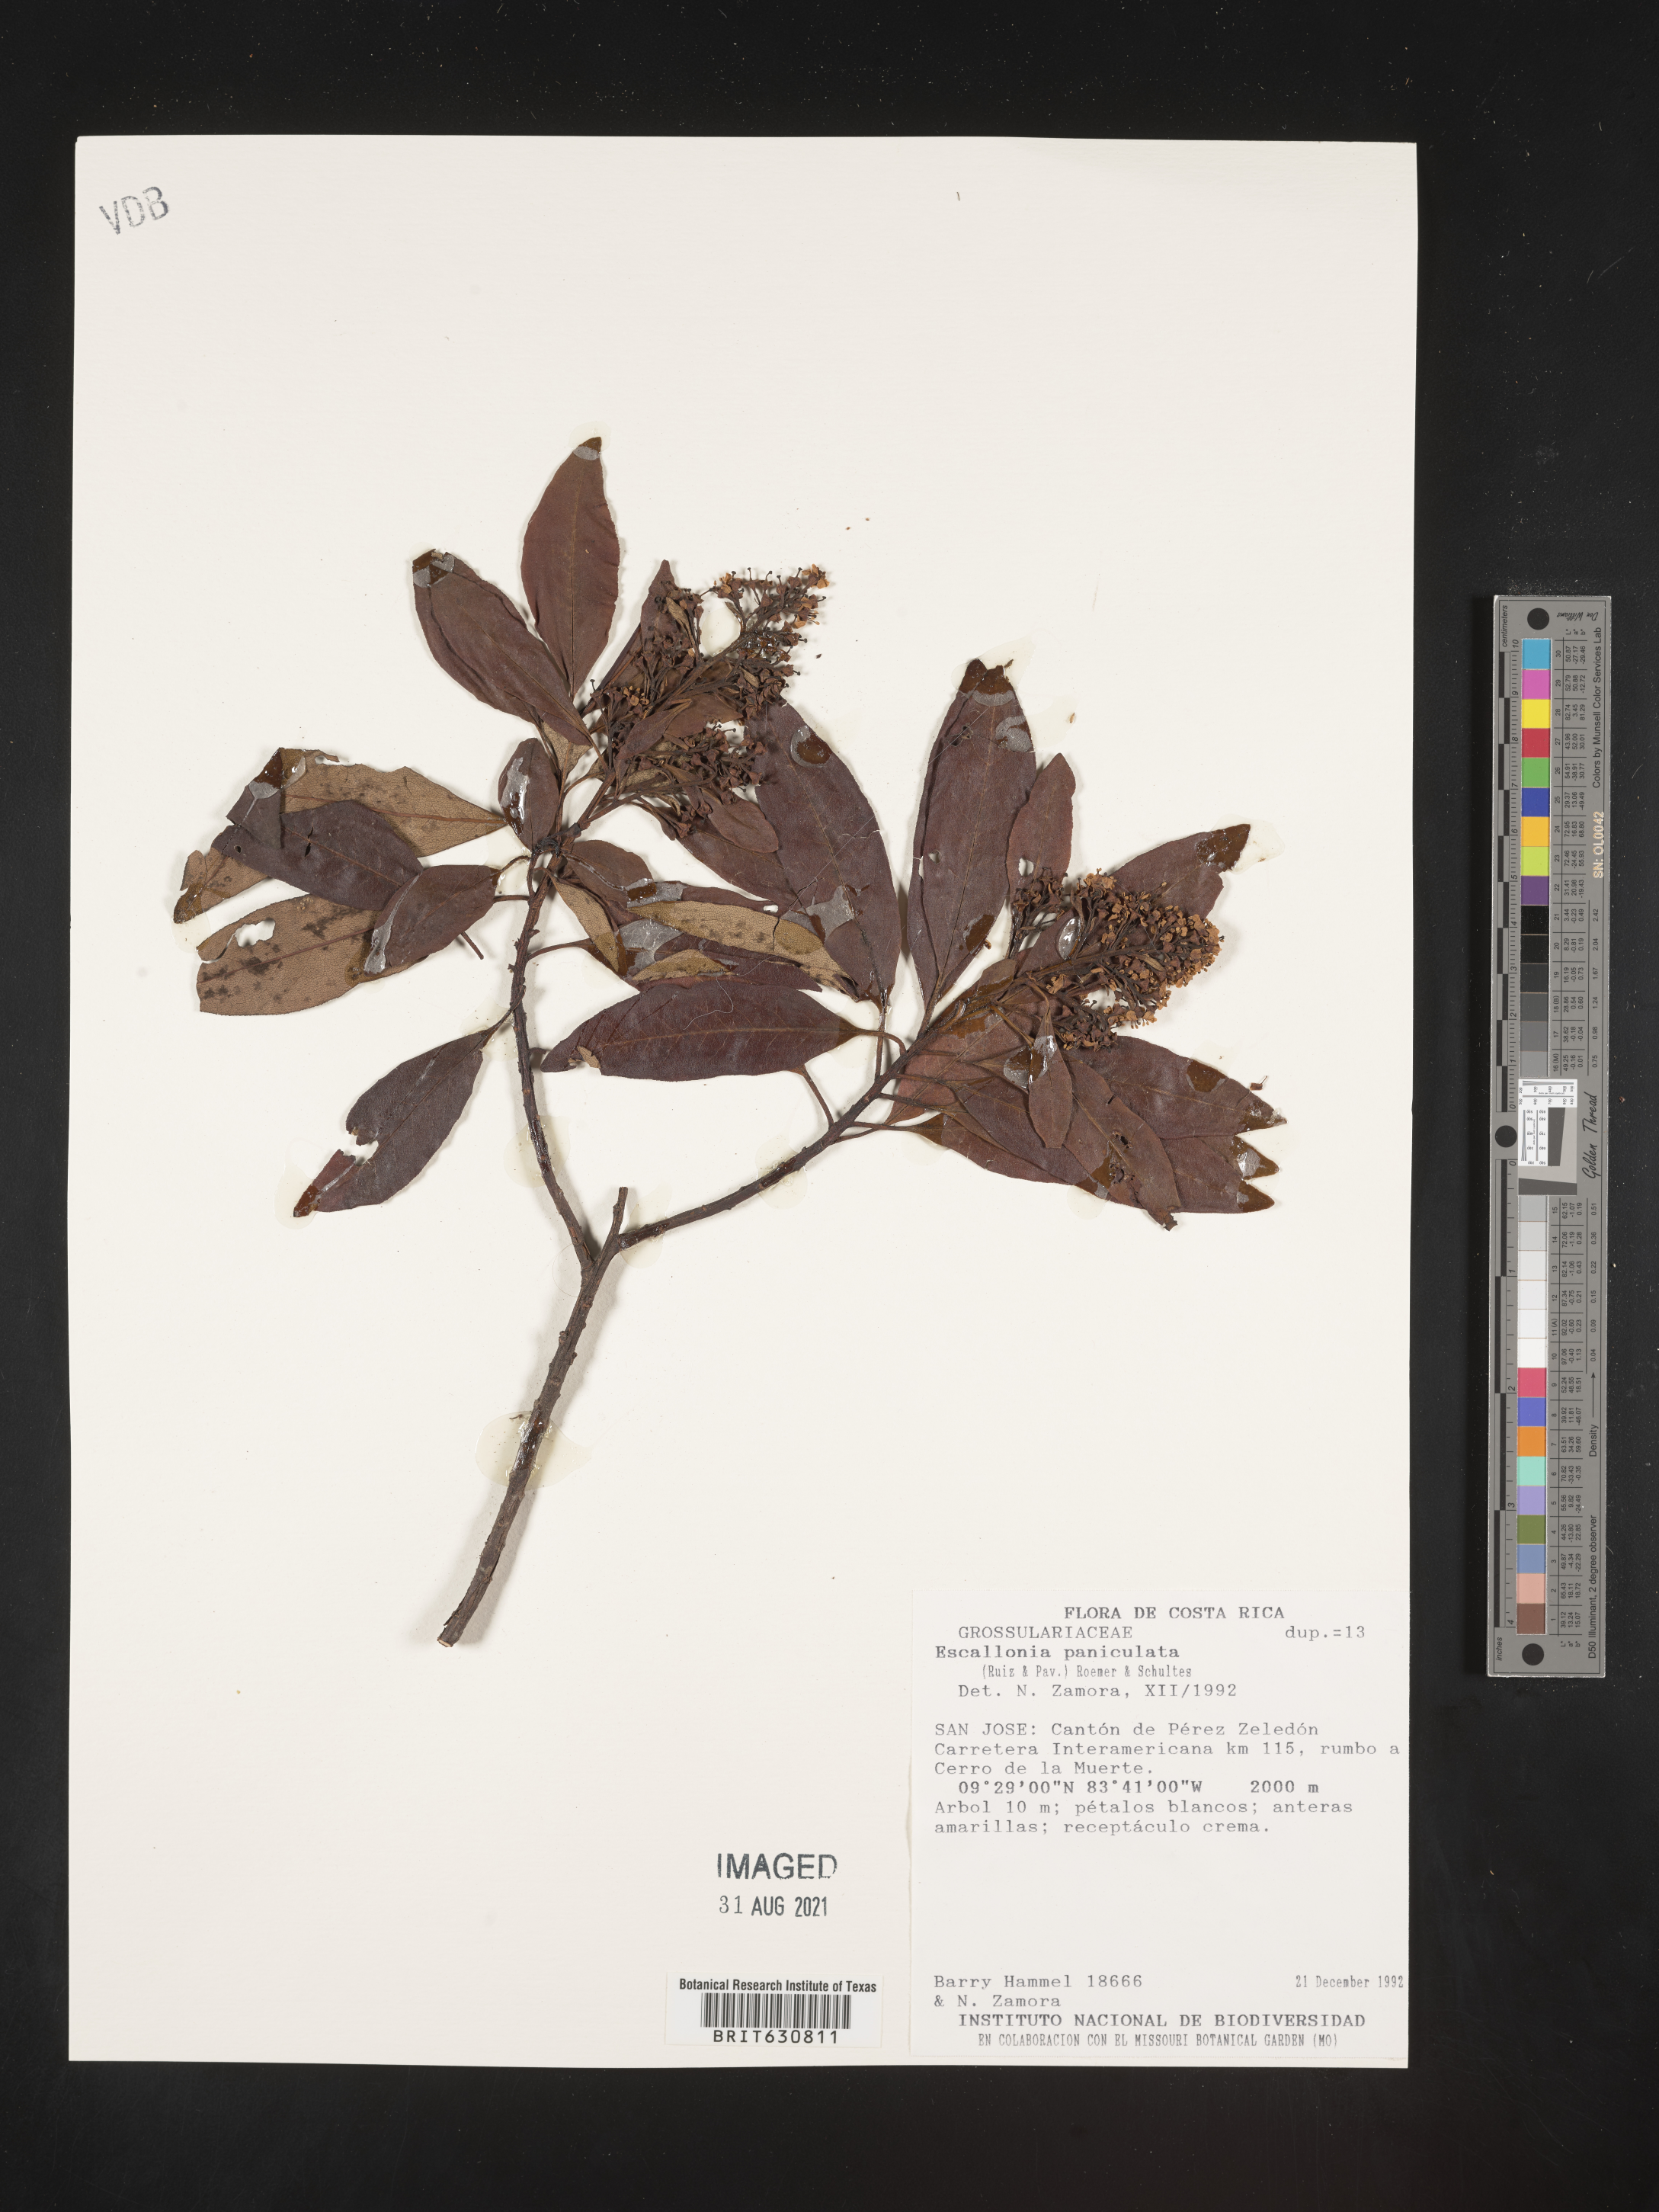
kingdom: Plantae
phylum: Tracheophyta
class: Magnoliopsida
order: Escalloniales
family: Escalloniaceae
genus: Escallonia
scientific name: Escallonia
